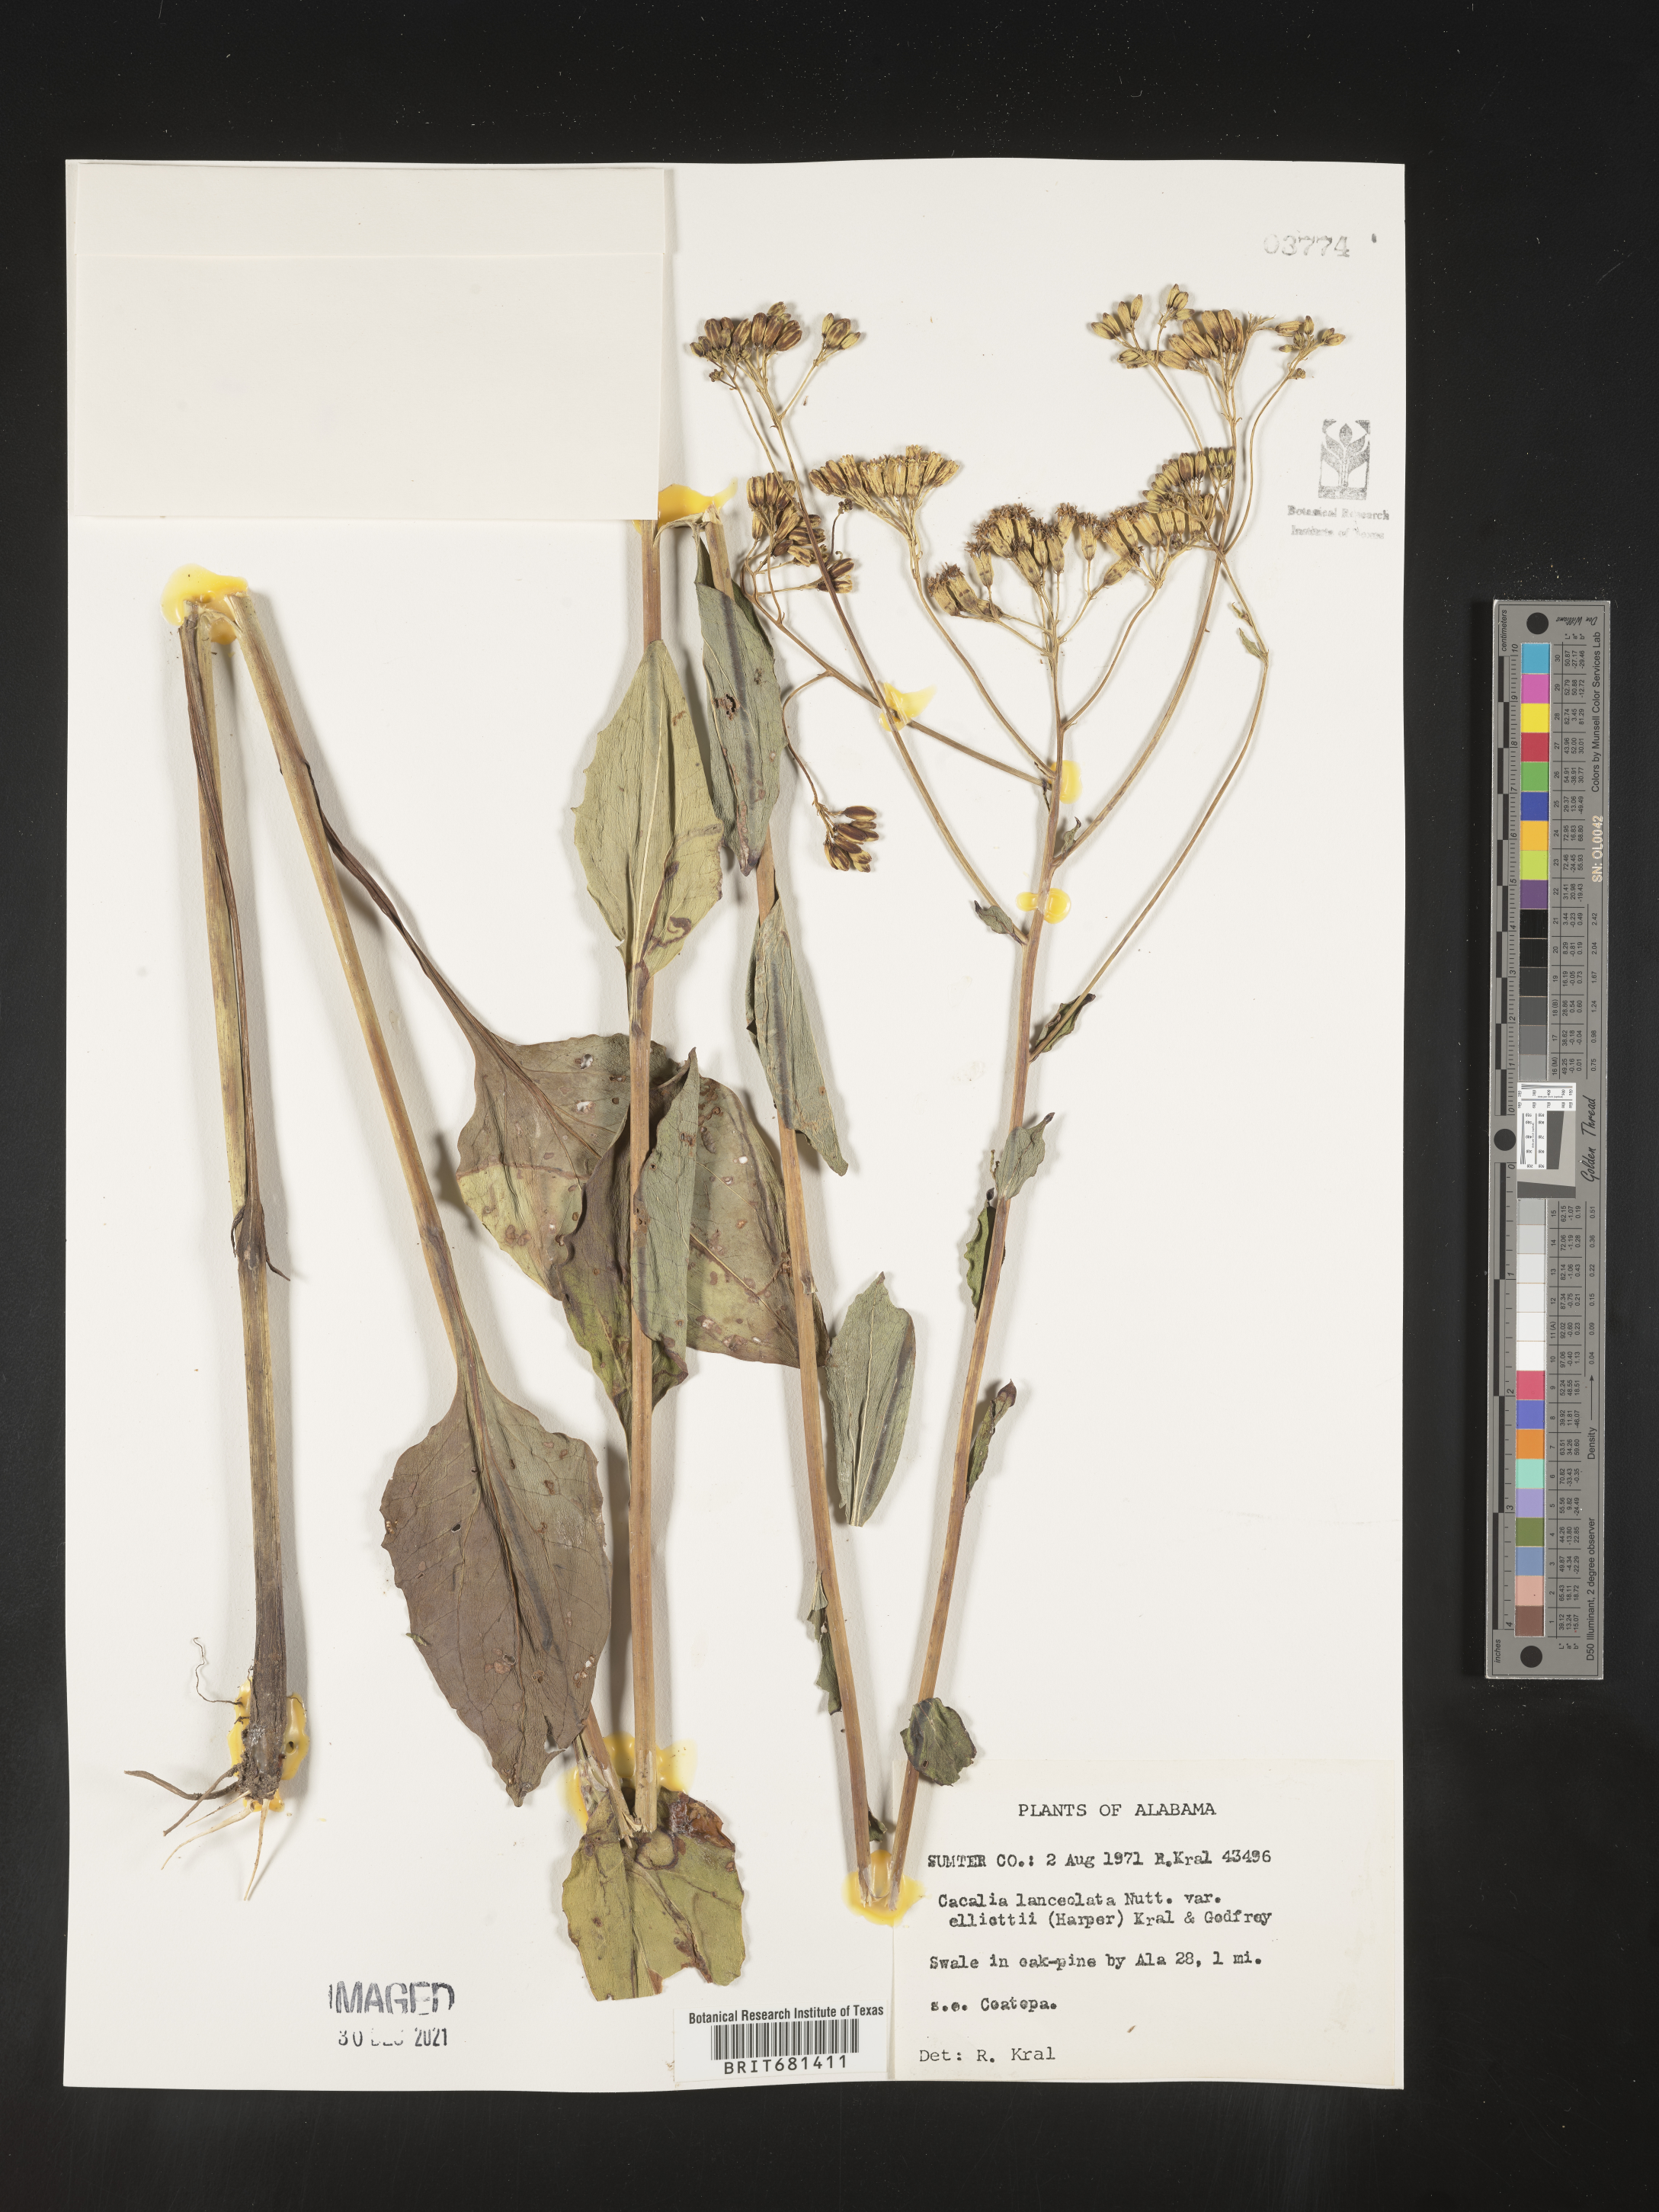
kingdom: Plantae
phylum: Tracheophyta
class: Magnoliopsida
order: Asterales
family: Asteraceae
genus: Arnoglossum
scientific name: Arnoglossum ovatum
